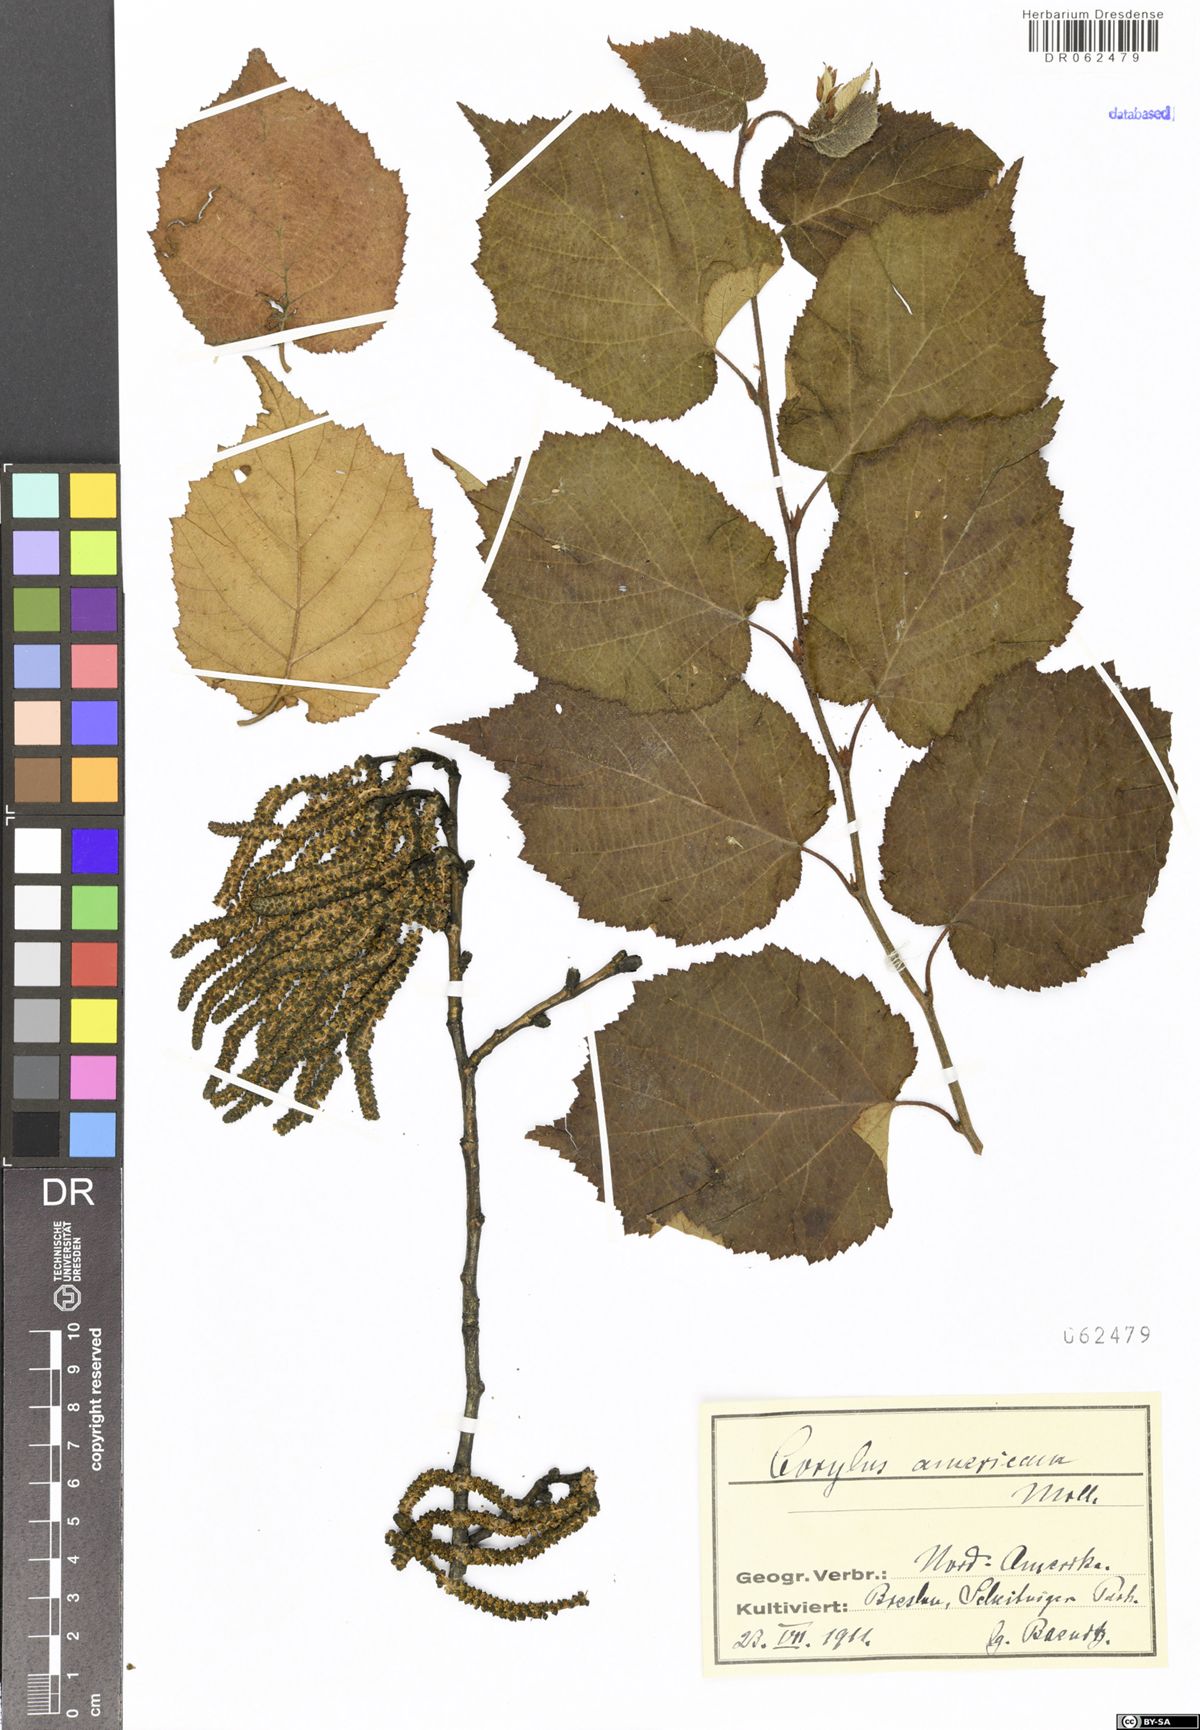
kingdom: Plantae
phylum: Tracheophyta
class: Magnoliopsida
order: Fagales
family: Betulaceae
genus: Corylus
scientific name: Corylus americana
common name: American hazel
